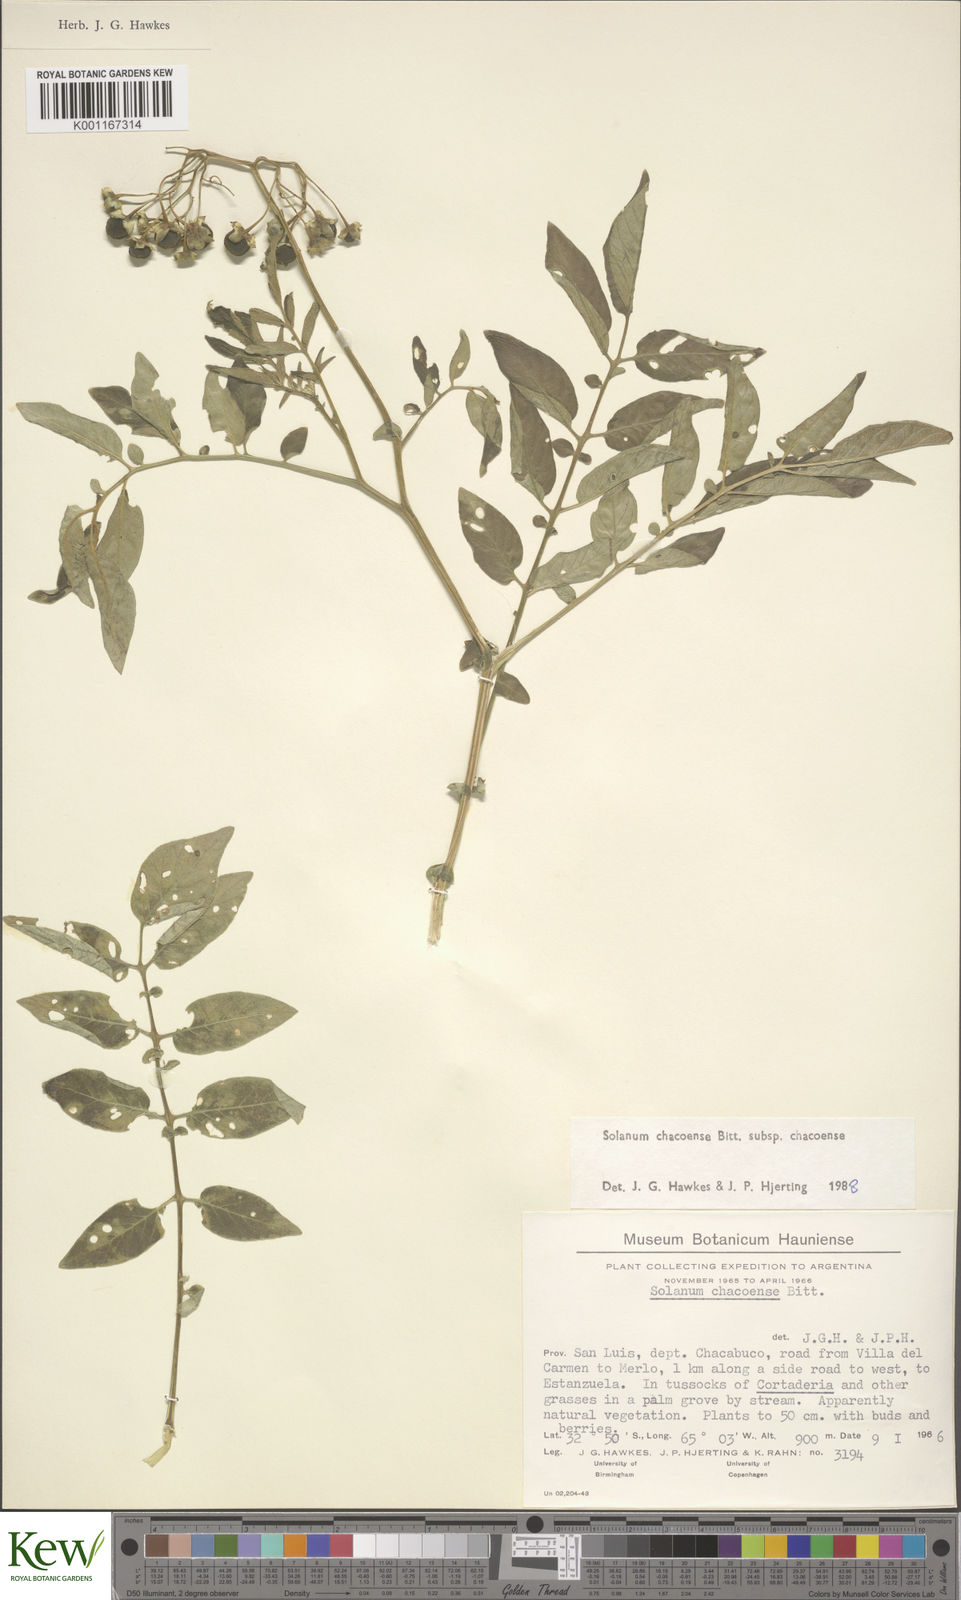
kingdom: Plantae
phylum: Tracheophyta
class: Magnoliopsida
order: Solanales
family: Solanaceae
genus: Solanum
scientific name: Solanum chacoense
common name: Chaco potato
